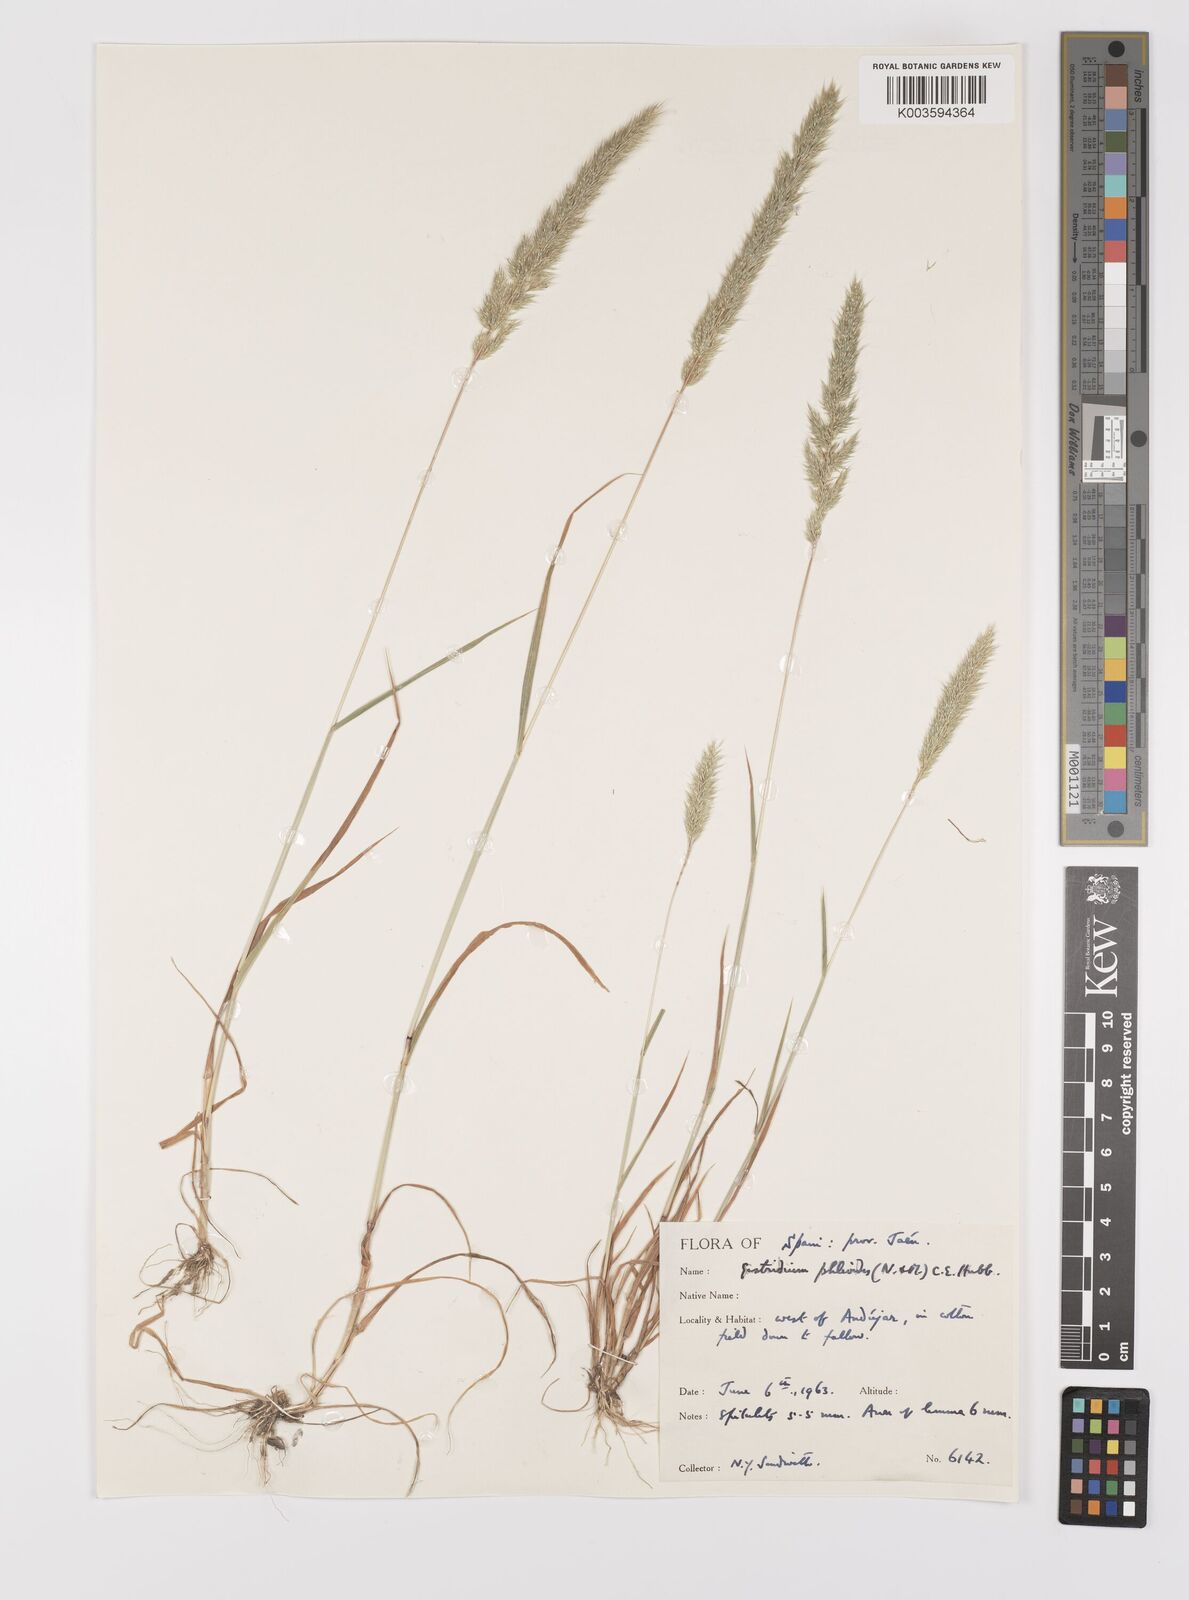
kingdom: Plantae
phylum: Tracheophyta
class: Liliopsida
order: Poales
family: Poaceae
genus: Gastridium
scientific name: Gastridium phleoides
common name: Nit grass
